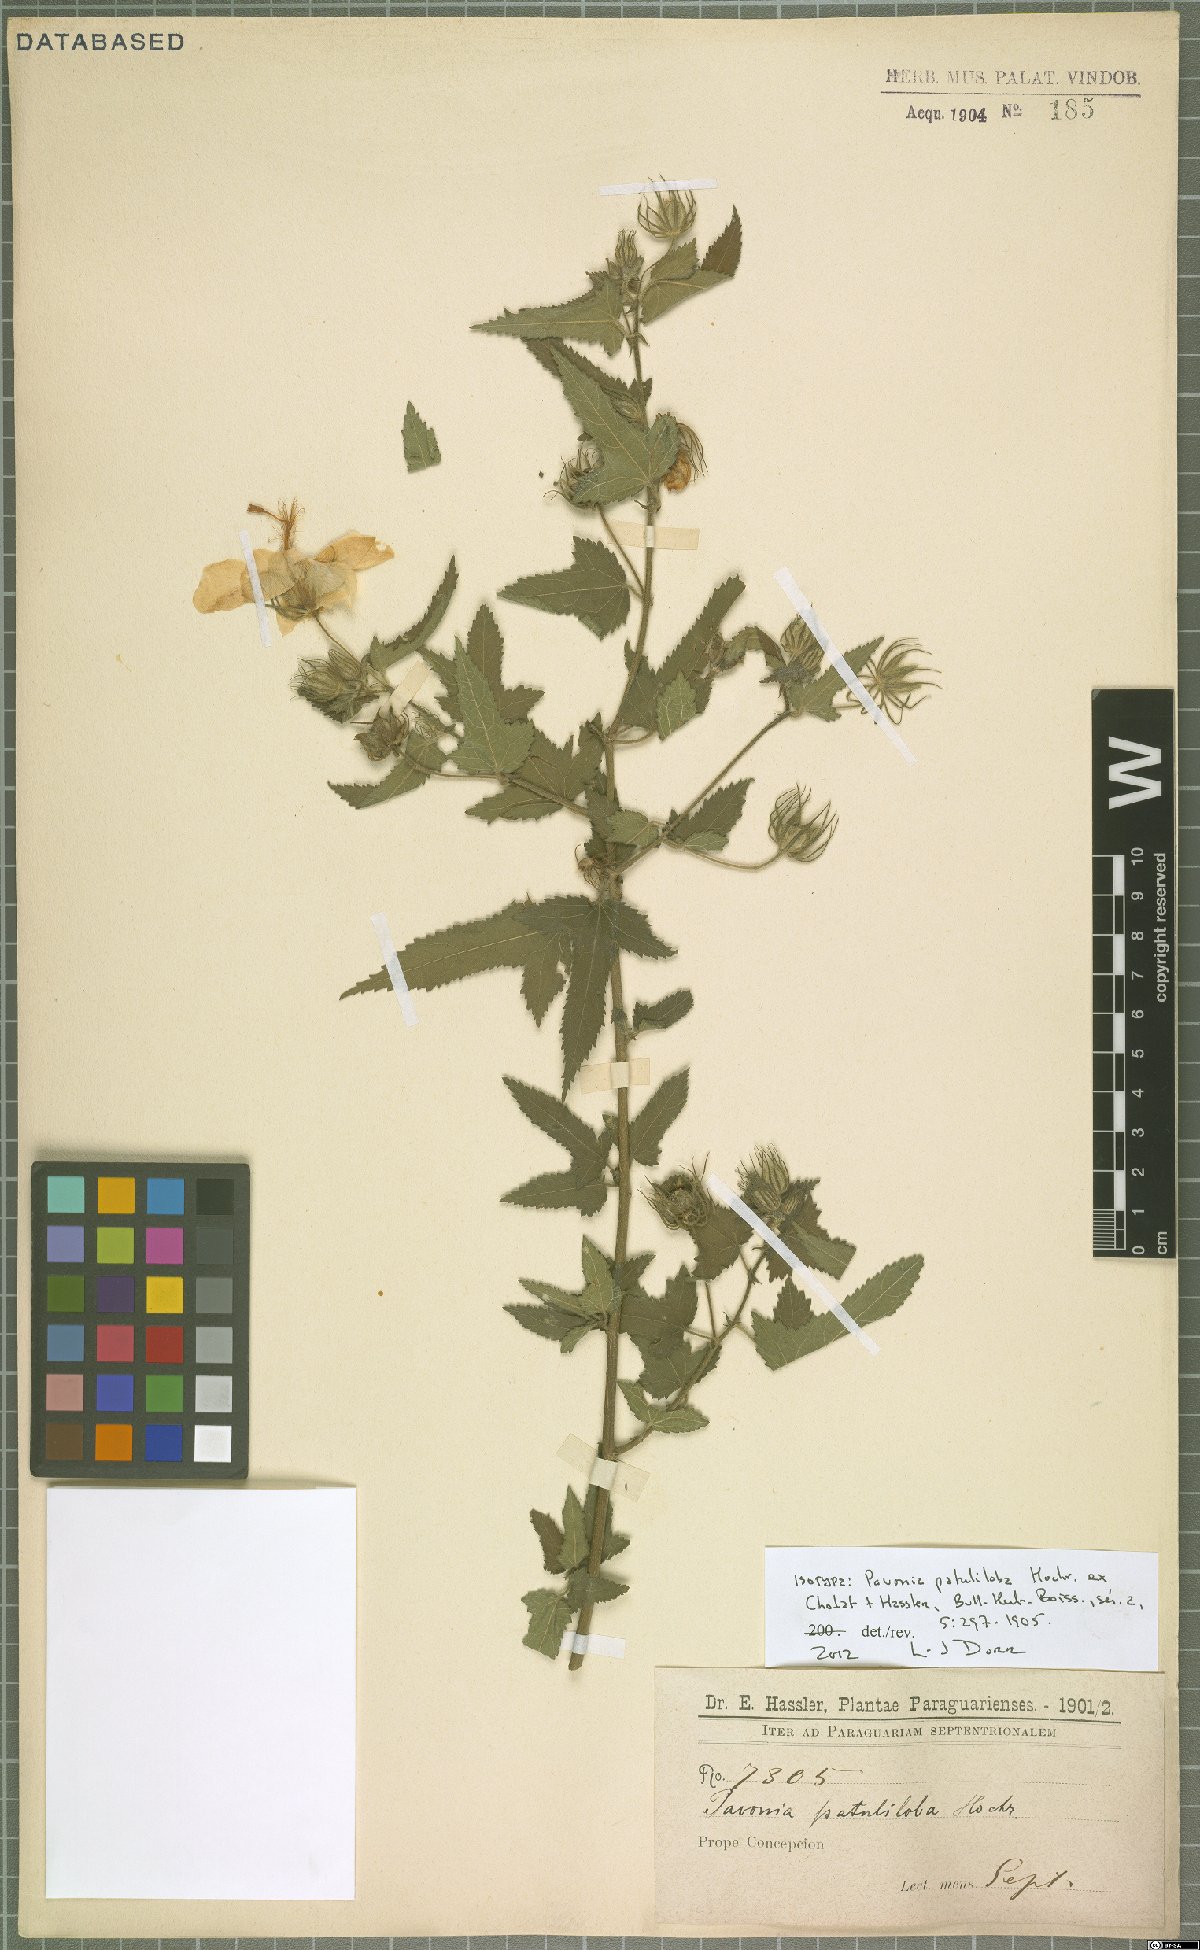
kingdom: Plantae
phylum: Tracheophyta
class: Magnoliopsida
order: Malvales
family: Malvaceae
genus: Pavonia
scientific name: Pavonia patuliloba
